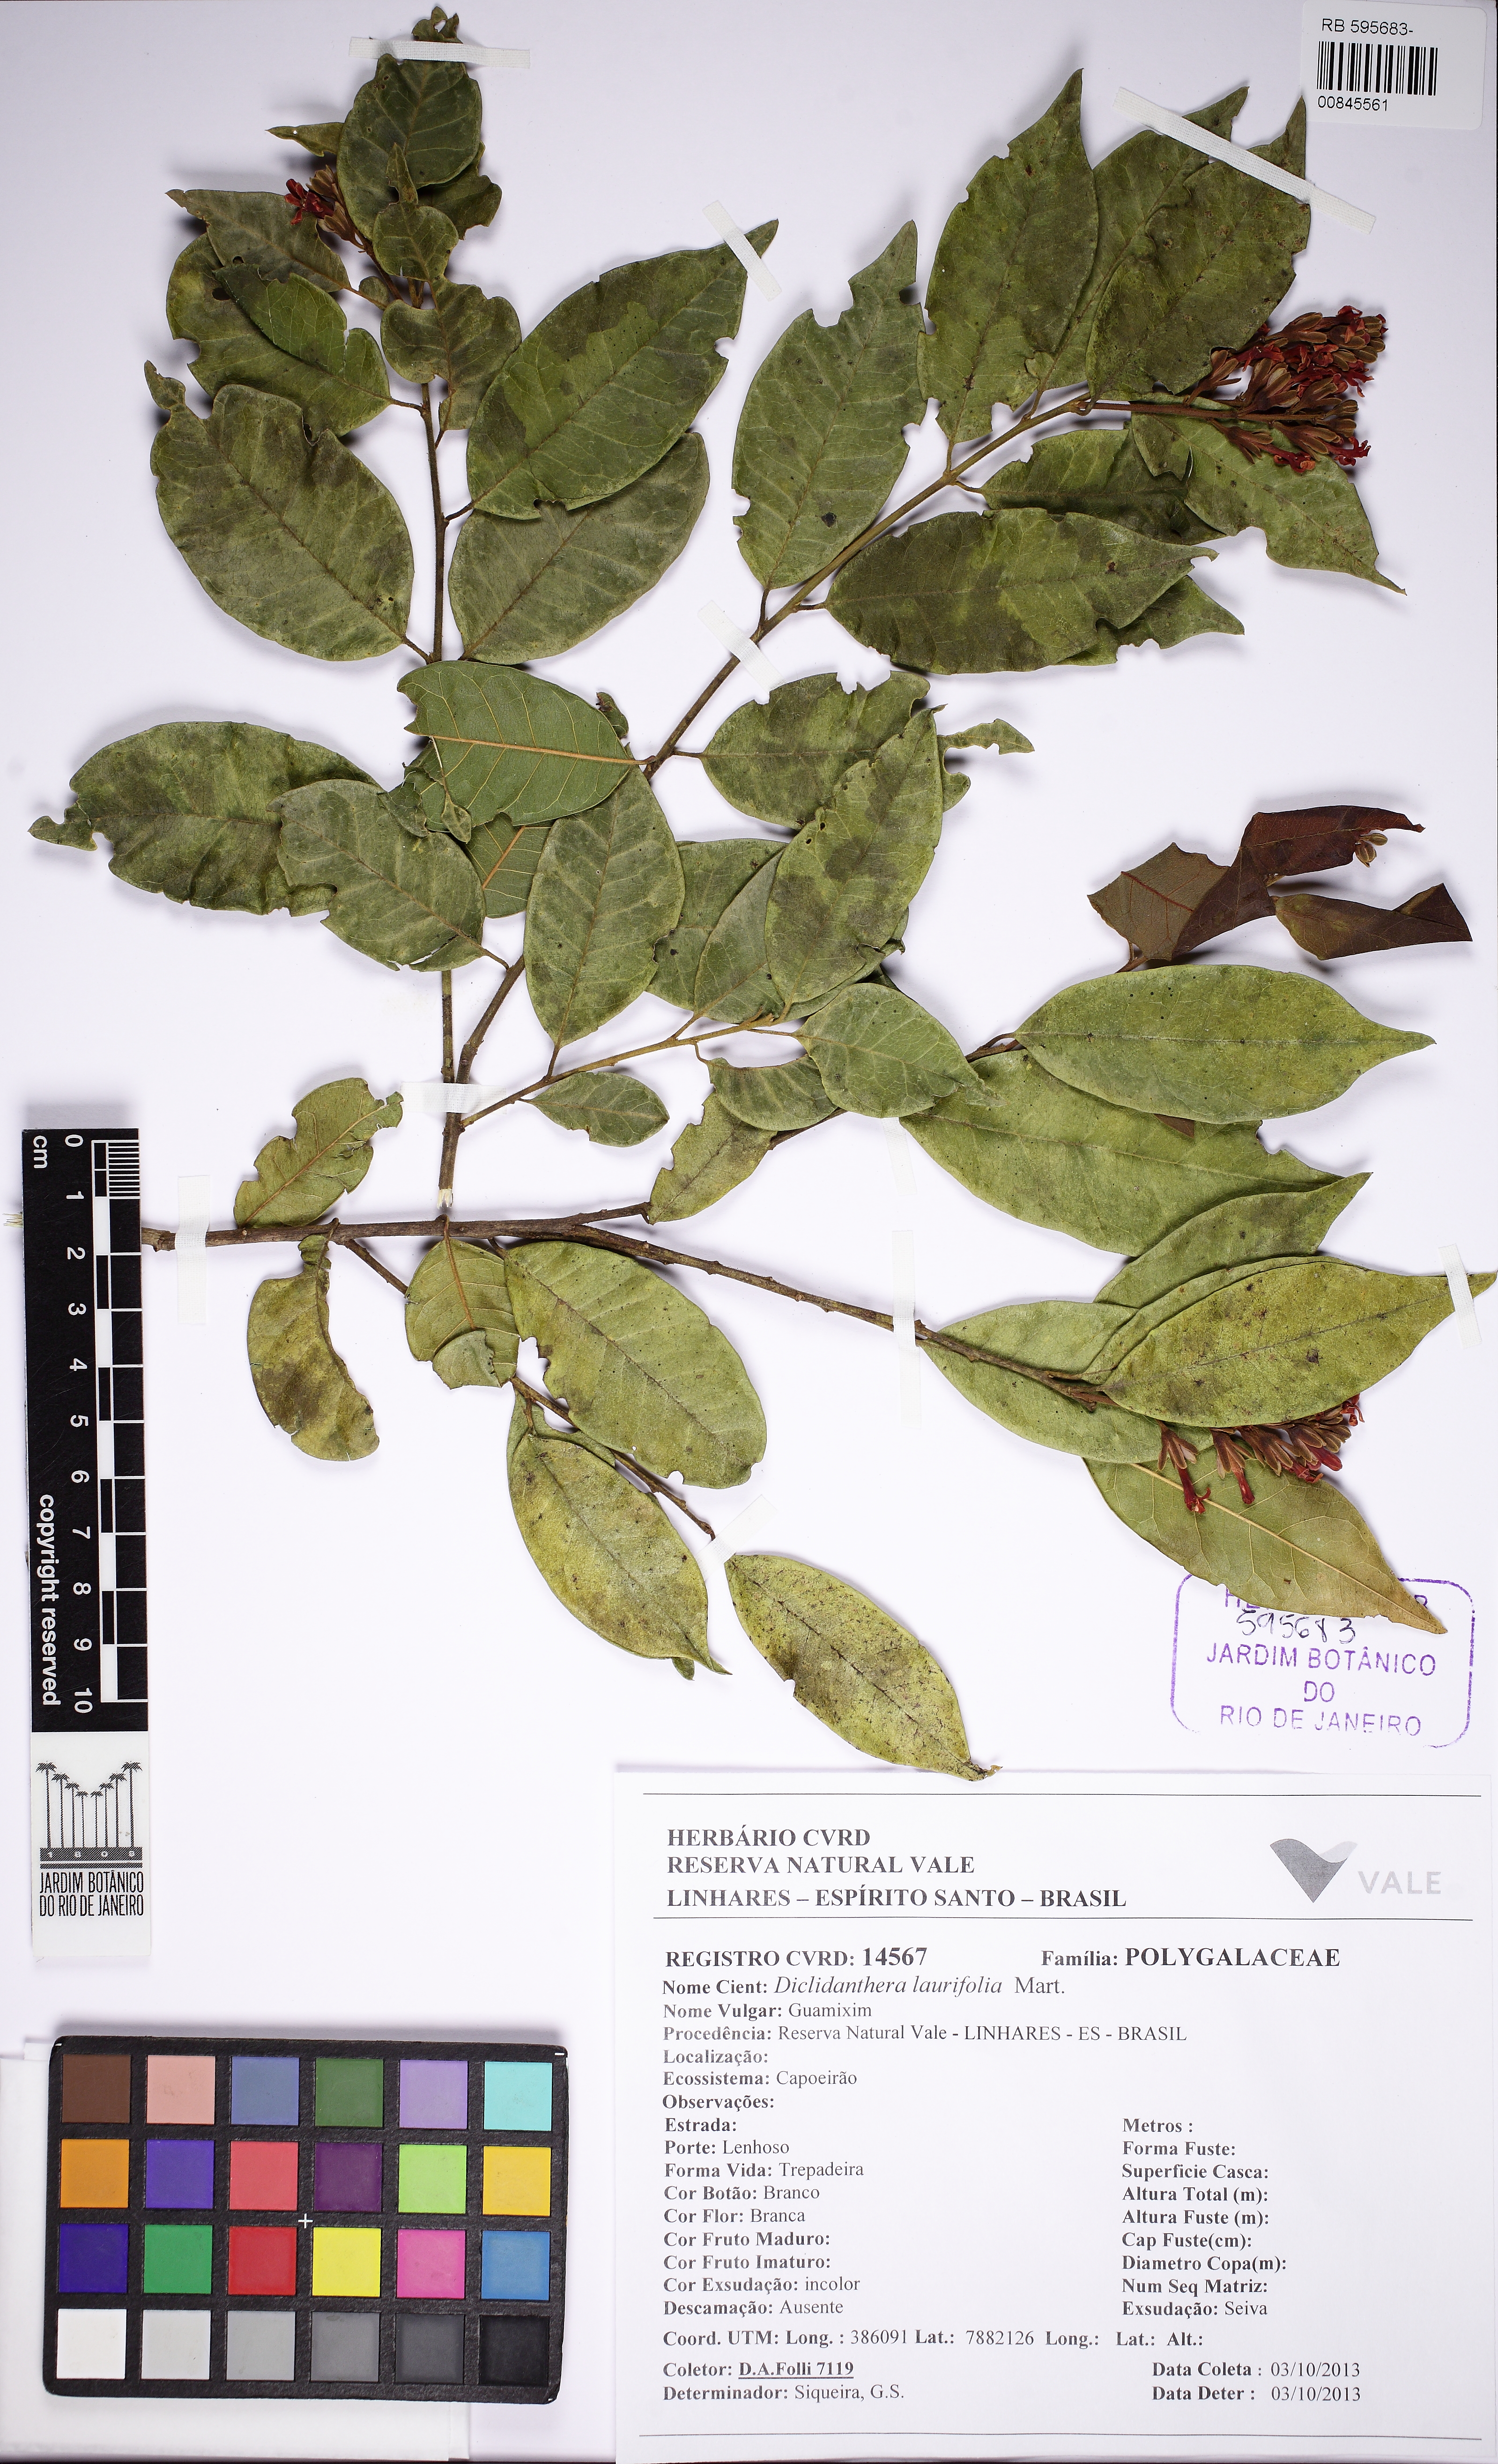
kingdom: Plantae
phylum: Tracheophyta
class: Magnoliopsida
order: Fabales
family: Polygalaceae
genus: Diclidanthera
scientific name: Diclidanthera laurifolia
